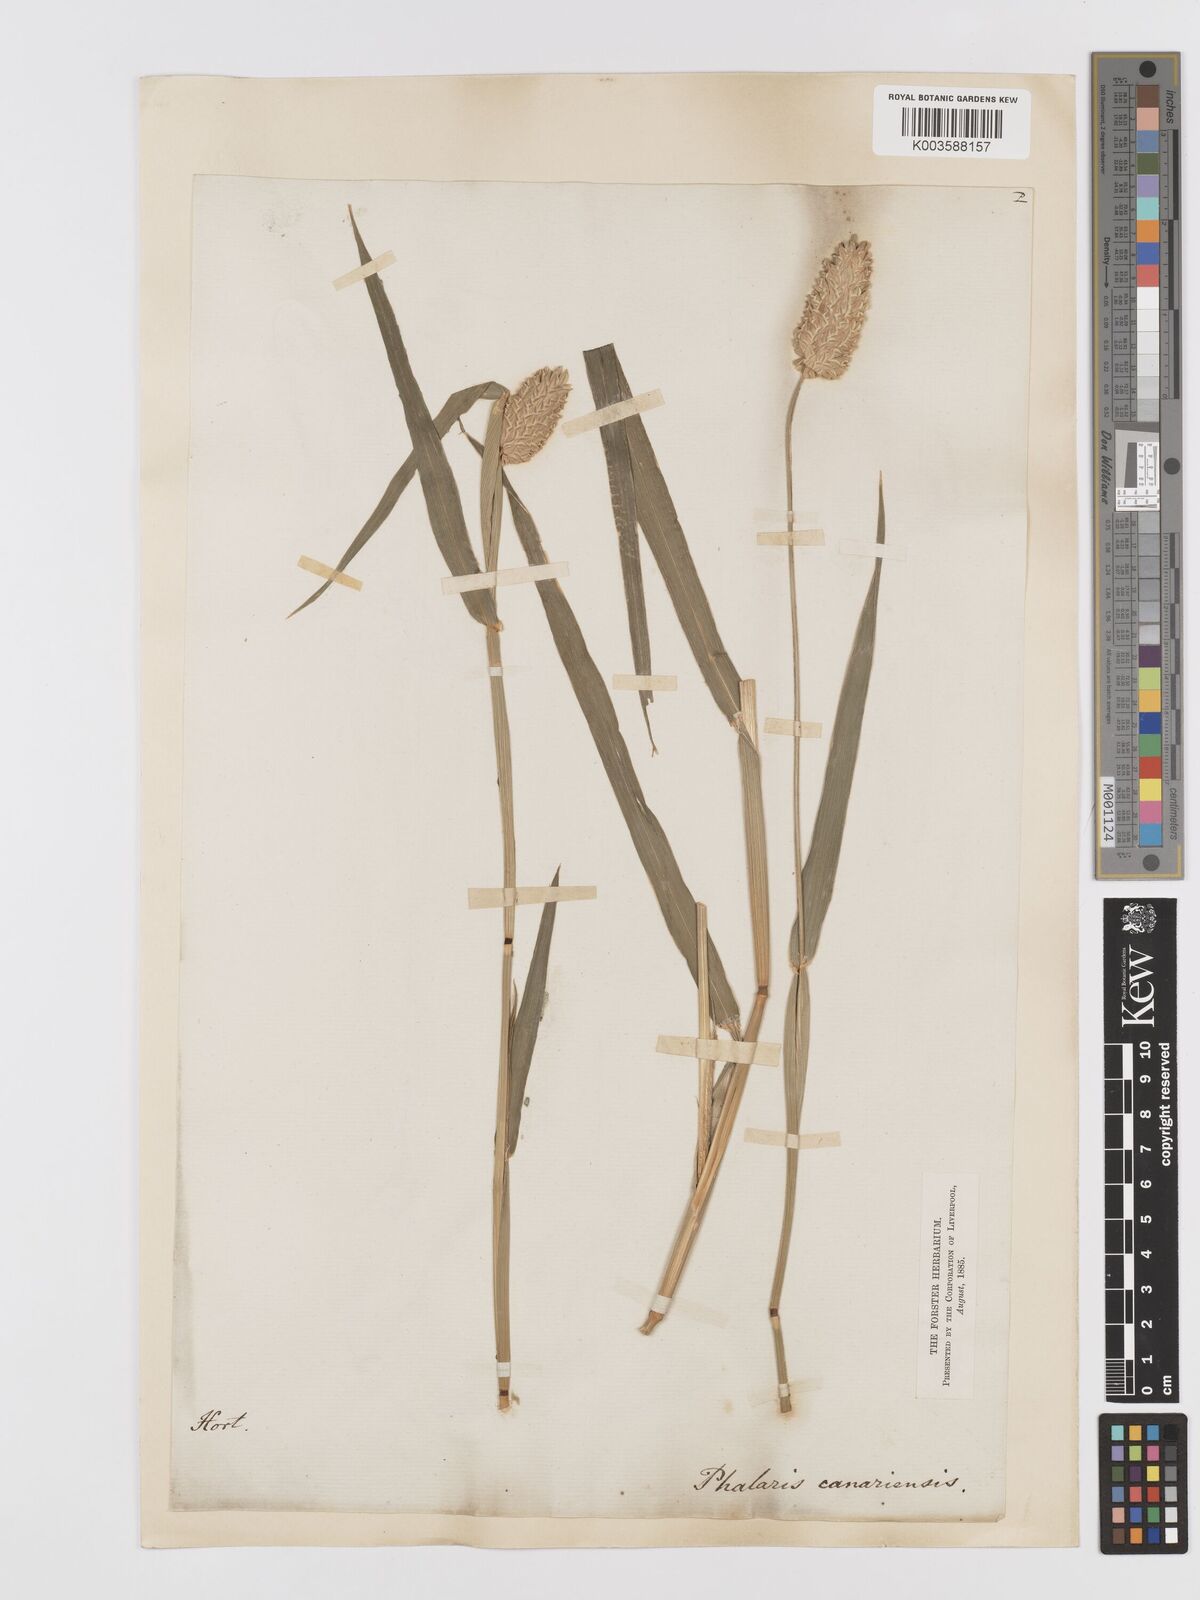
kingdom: Plantae
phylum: Tracheophyta
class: Liliopsida
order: Poales
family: Poaceae
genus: Phalaris
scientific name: Phalaris canariensis
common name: Annual canarygrass
